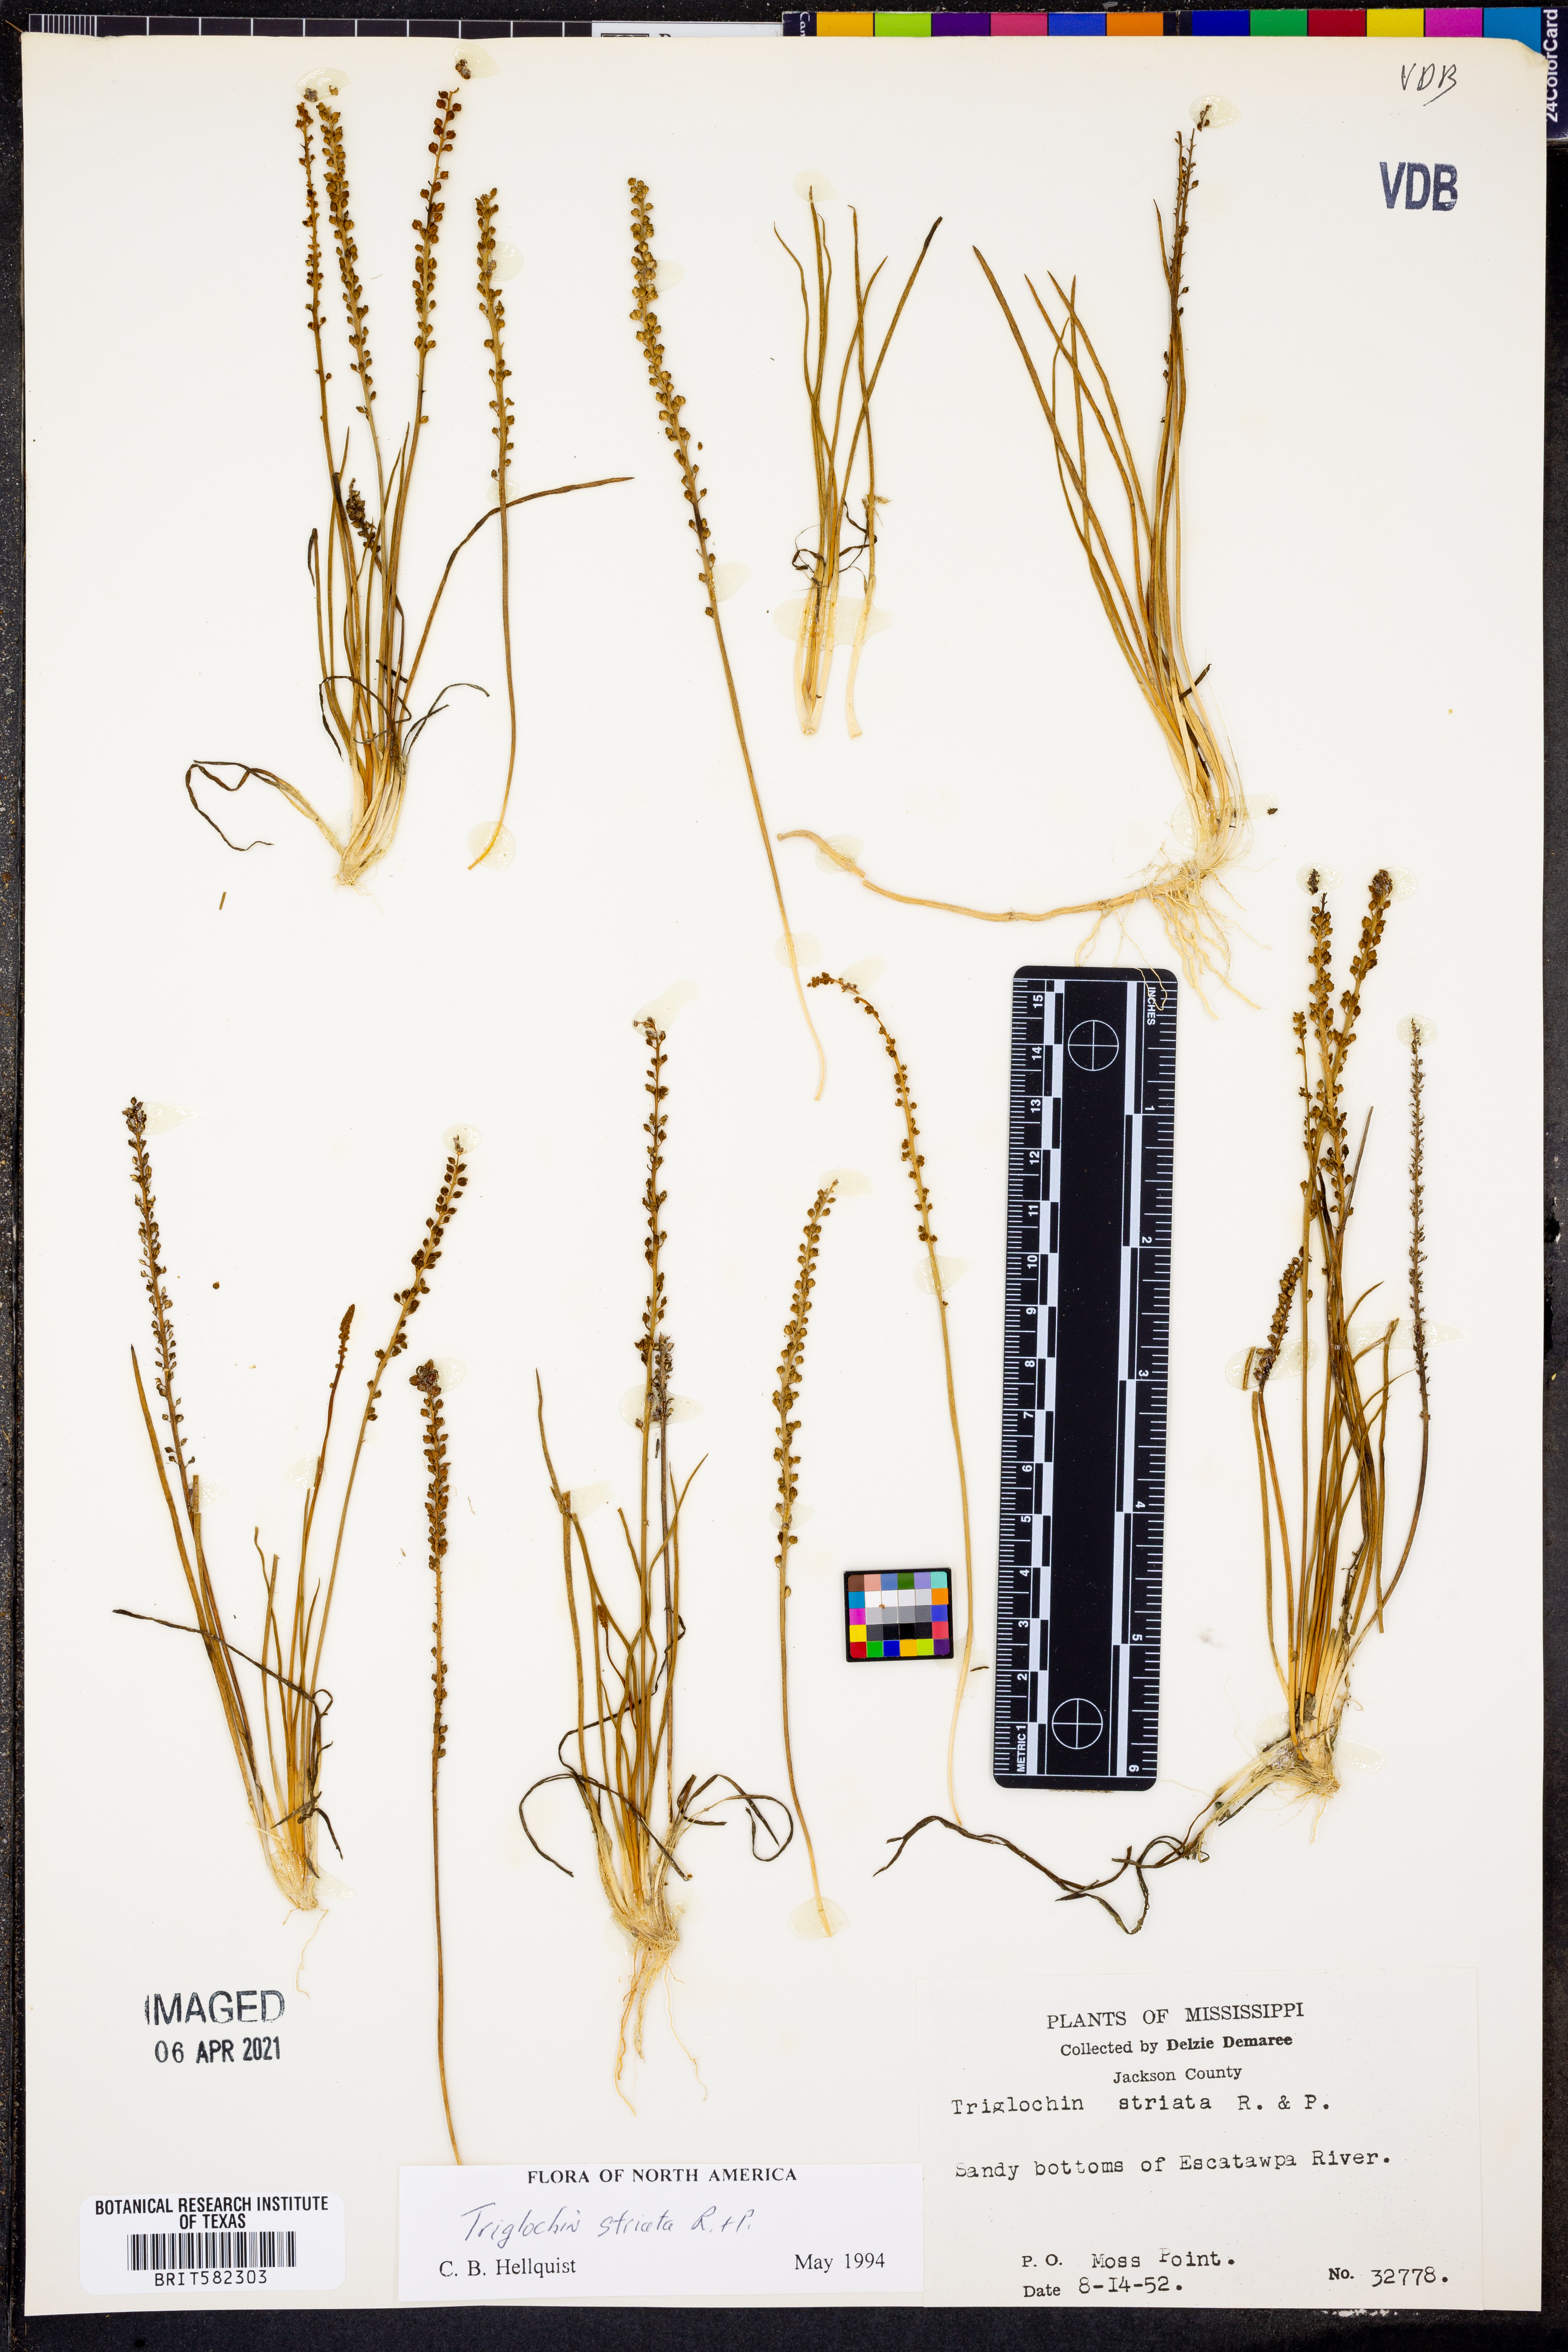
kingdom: Plantae
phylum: Tracheophyta
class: Liliopsida
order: Alismatales
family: Juncaginaceae
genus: Triglochin
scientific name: Triglochin striata
